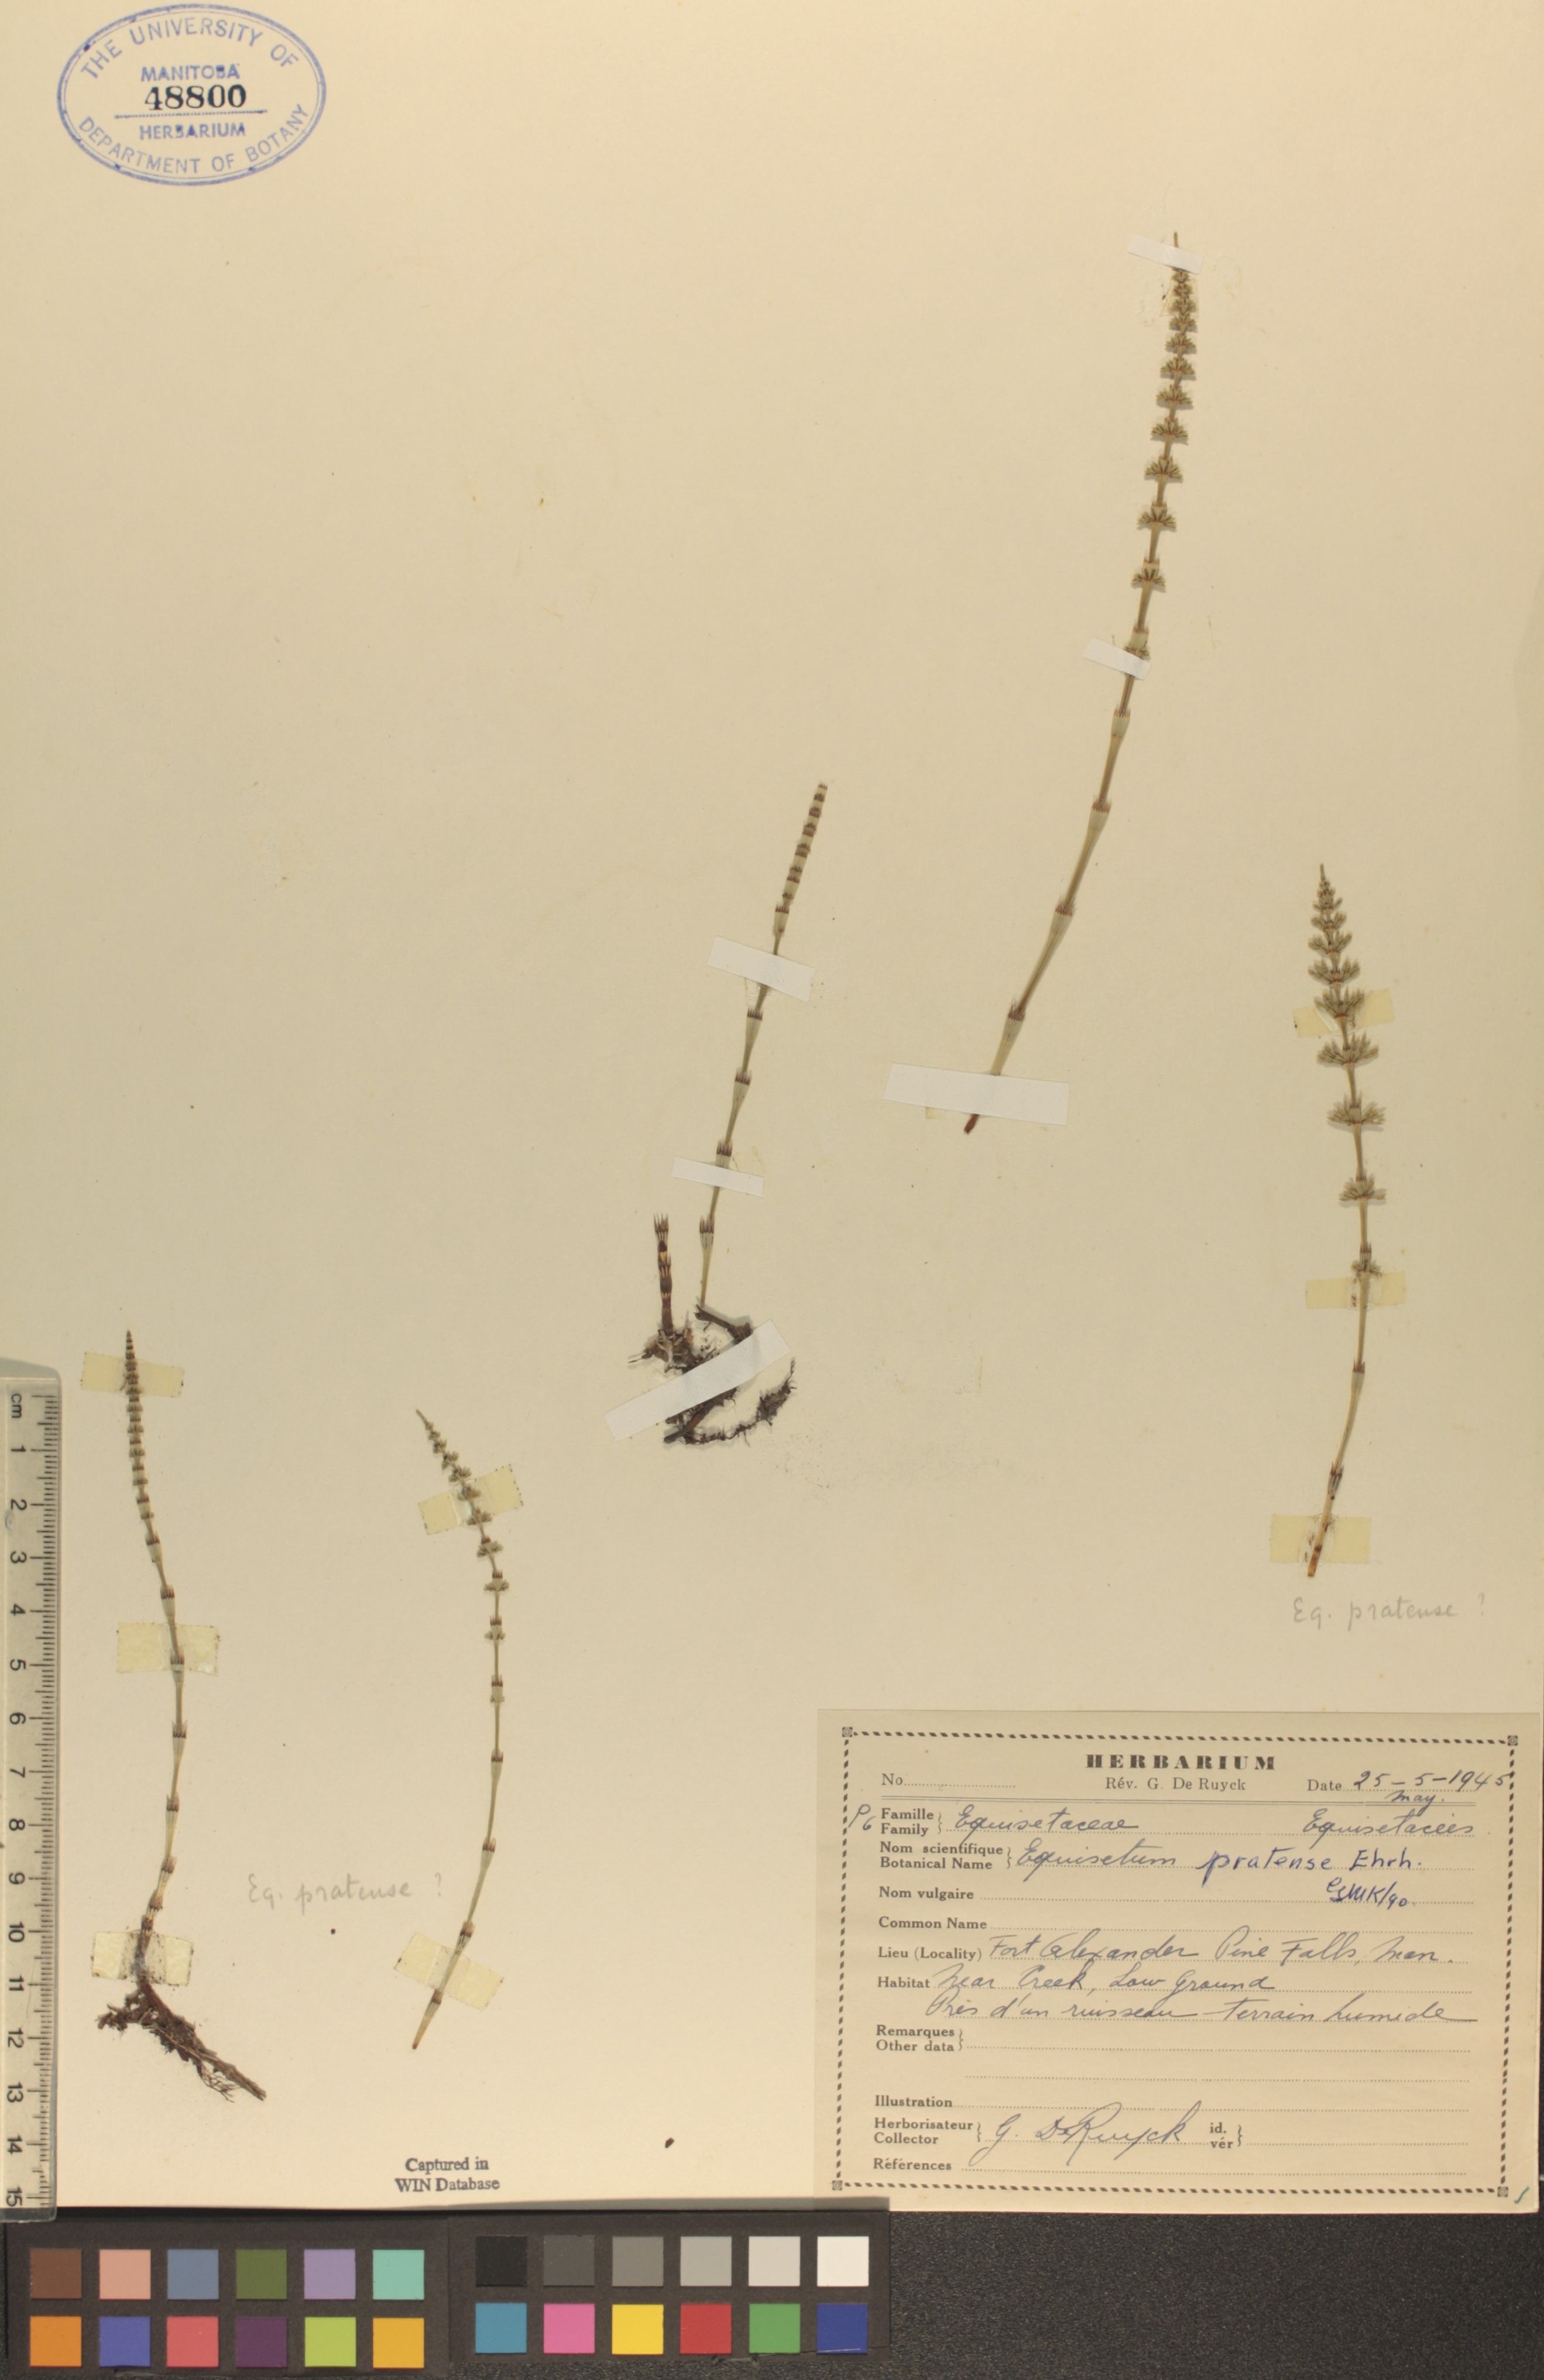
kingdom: Plantae
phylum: Tracheophyta
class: Polypodiopsida
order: Equisetales
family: Equisetaceae
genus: Equisetum
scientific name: Equisetum pratense
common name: Meadow horsetail
